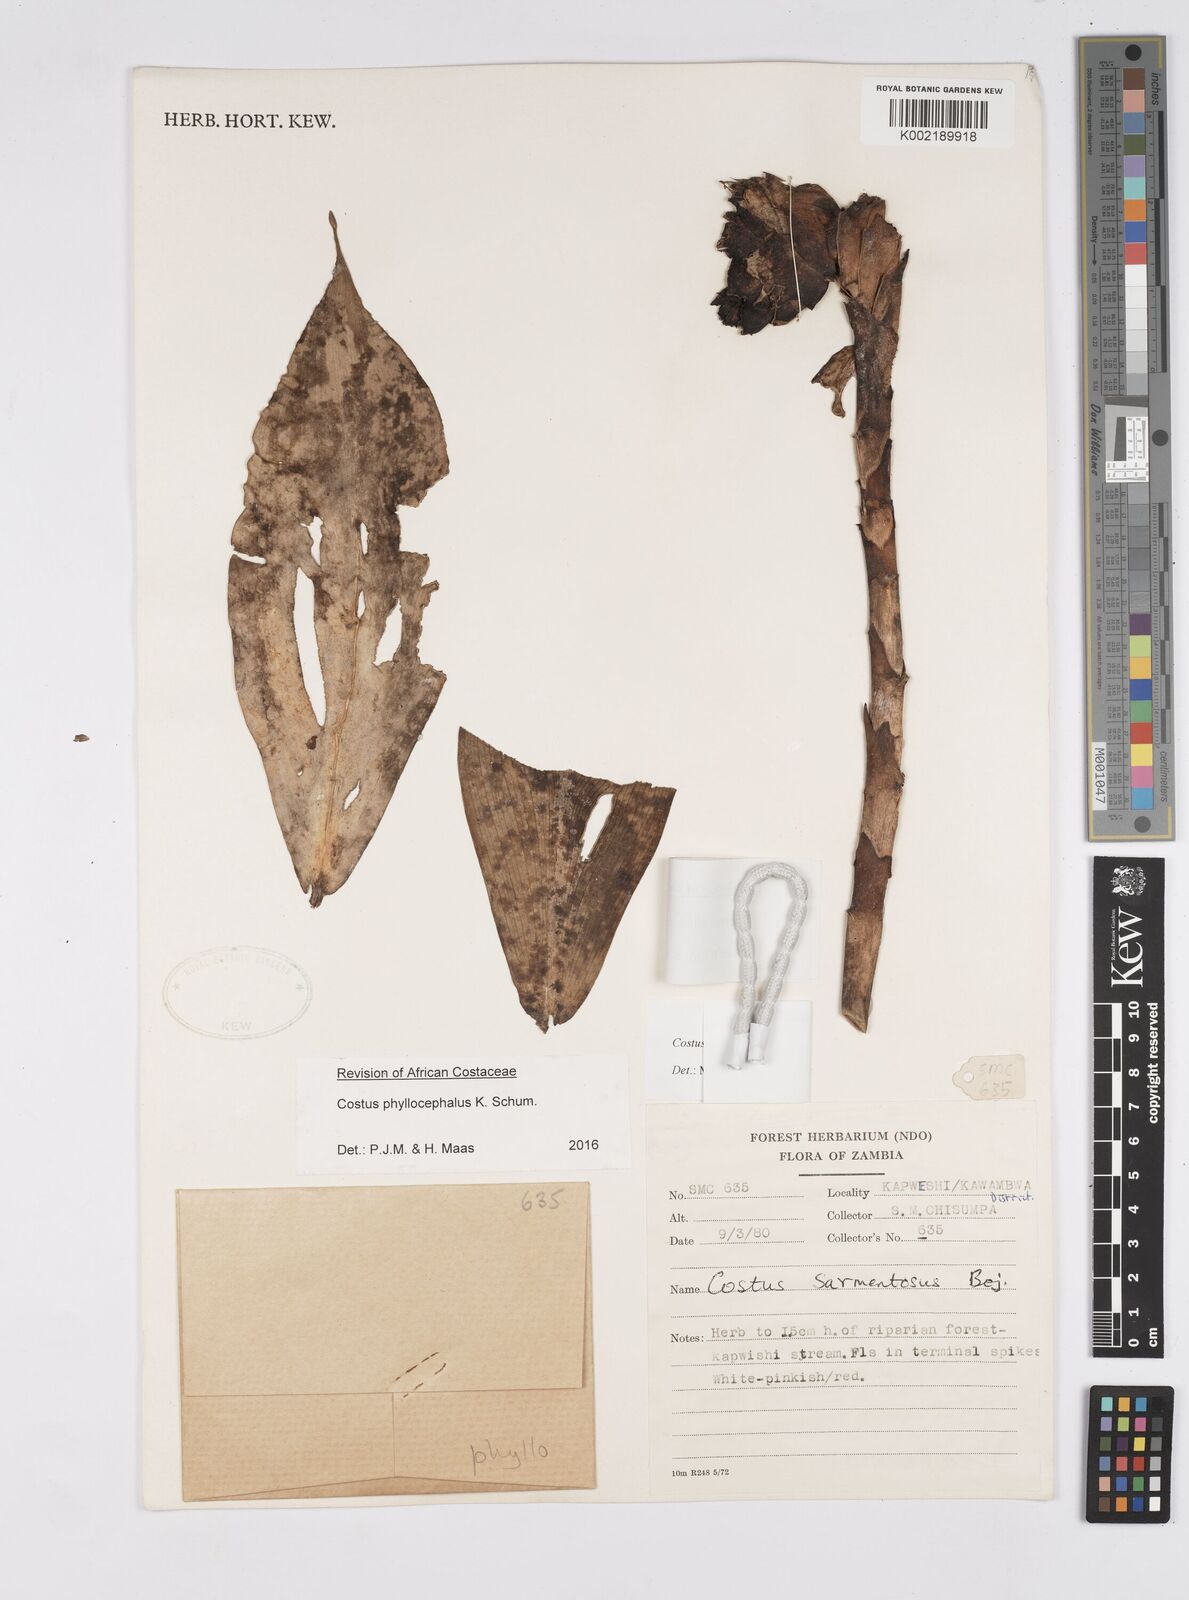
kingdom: Plantae
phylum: Tracheophyta
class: Liliopsida
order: Zingiberales
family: Costaceae
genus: Costus
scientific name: Costus phyllocephalus
